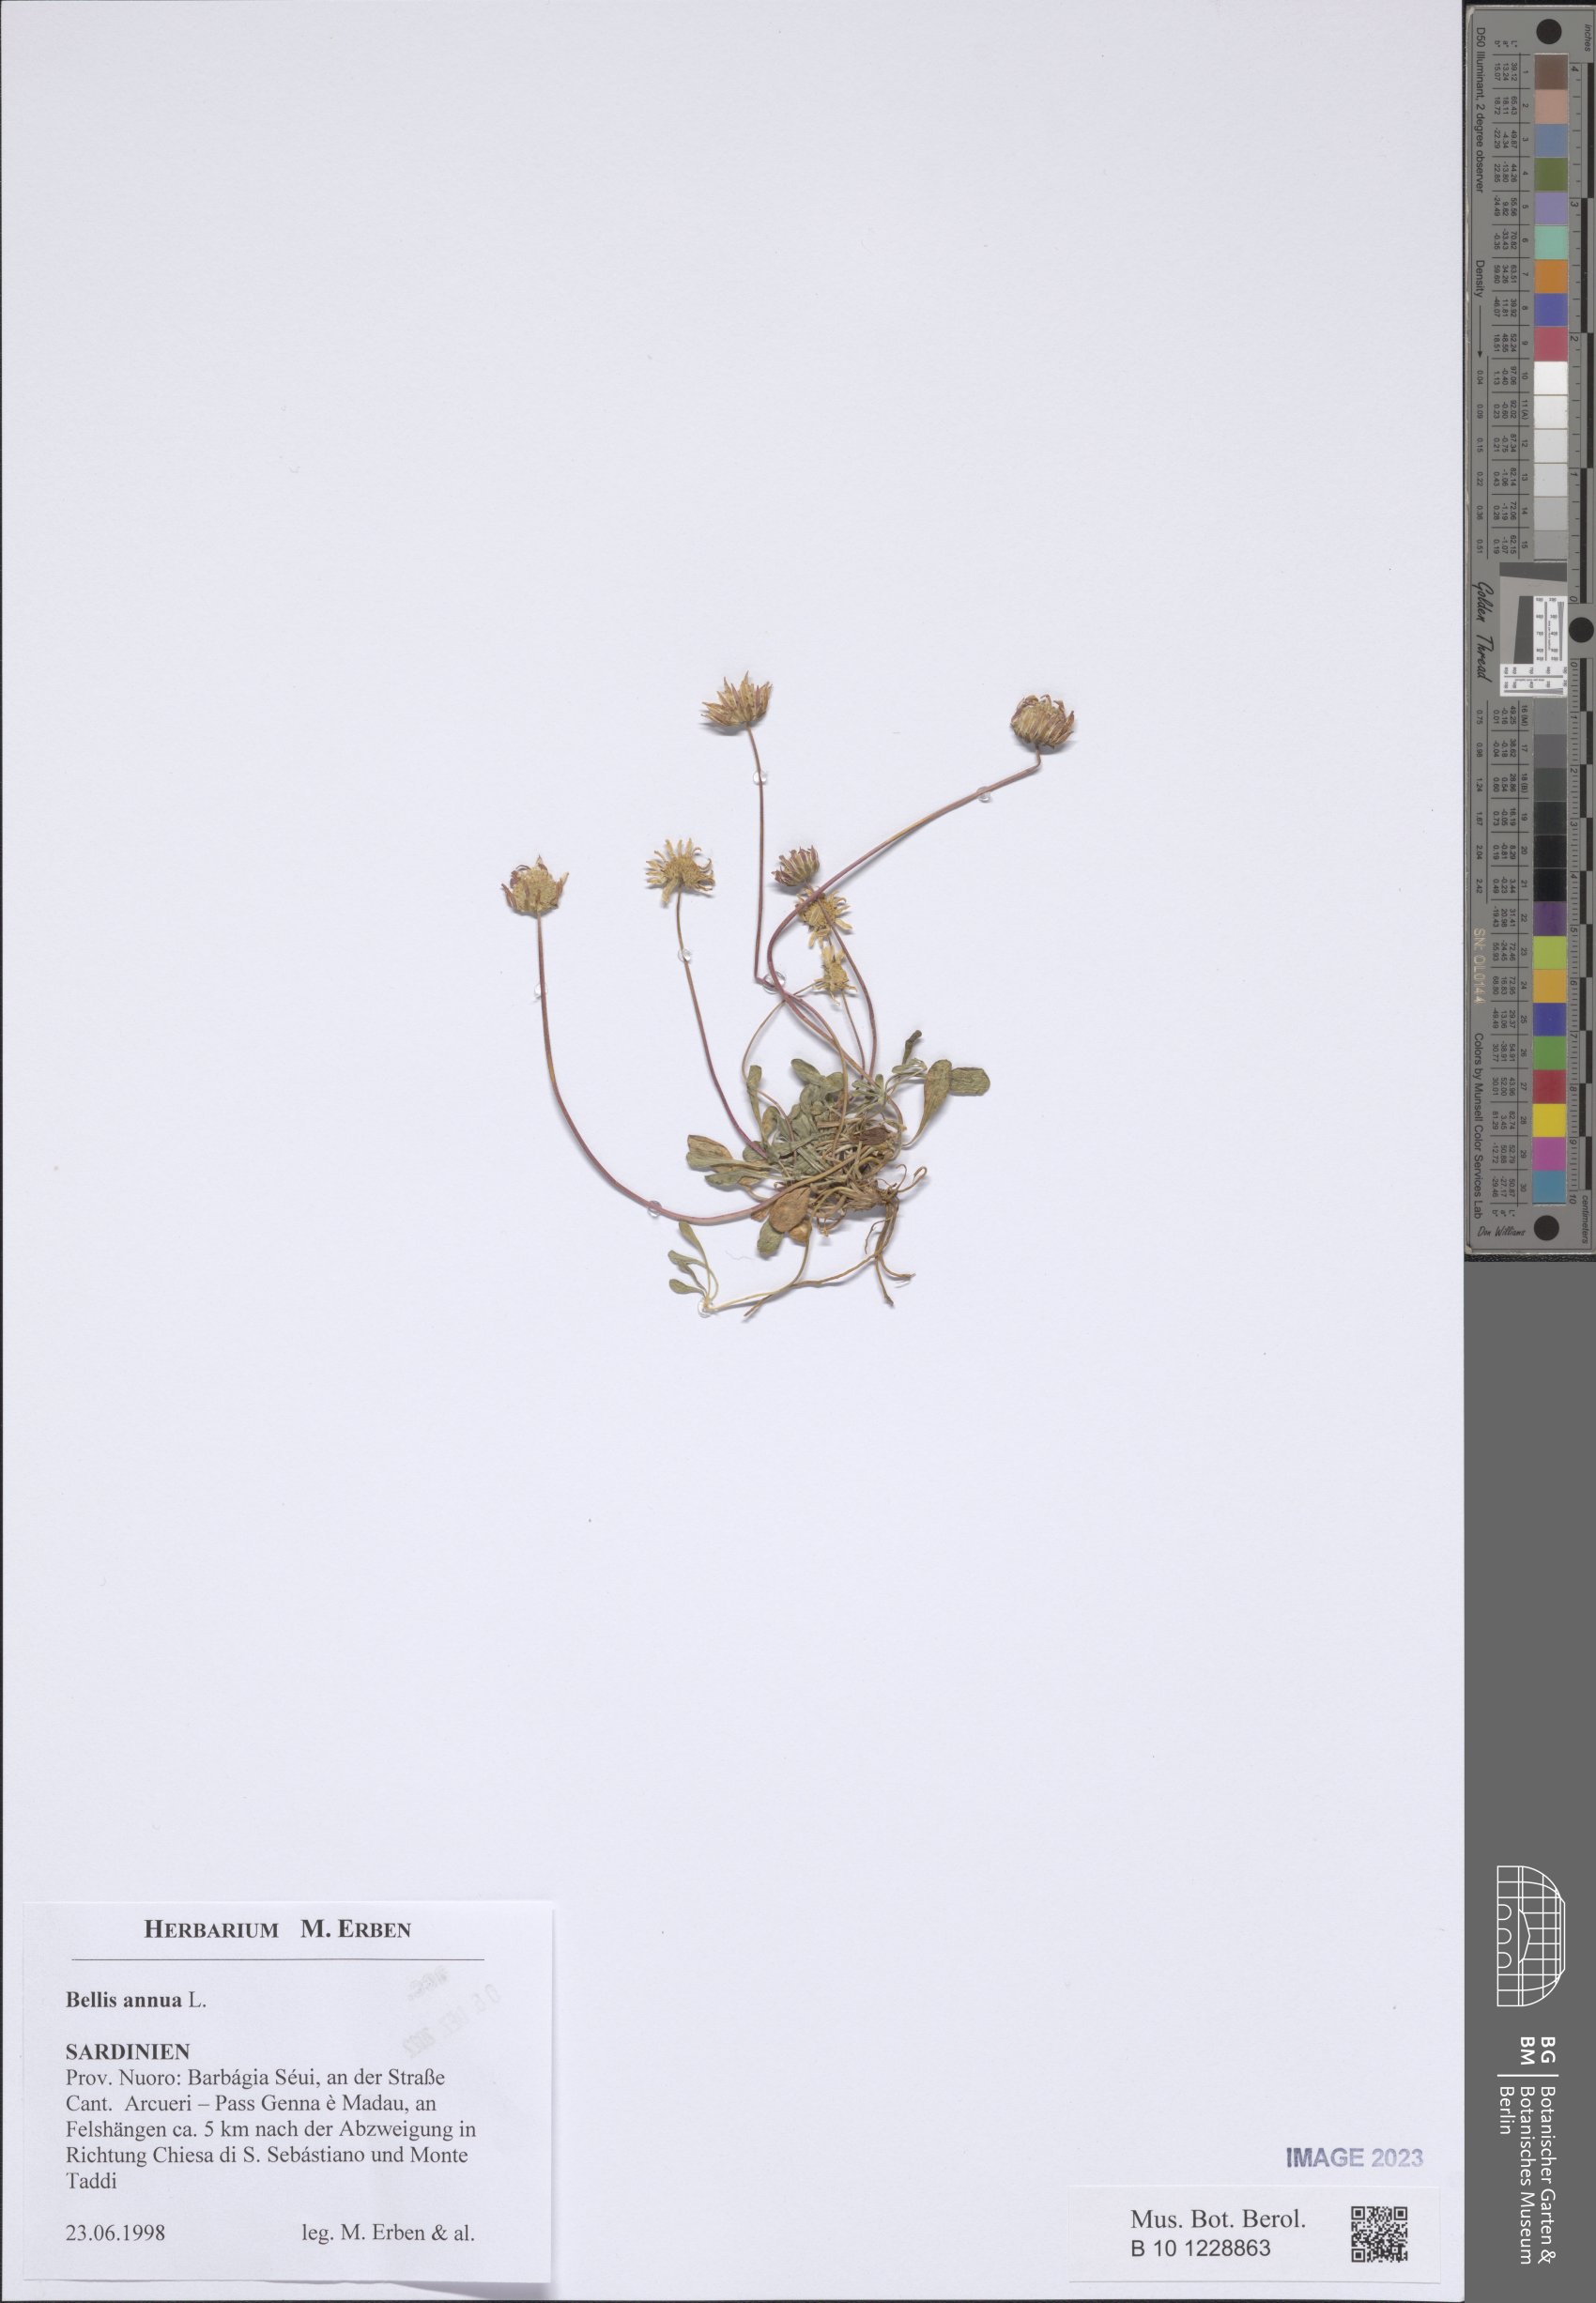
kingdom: Plantae
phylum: Tracheophyta
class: Magnoliopsida
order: Asterales
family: Asteraceae
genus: Bellis
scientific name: Bellis annua
